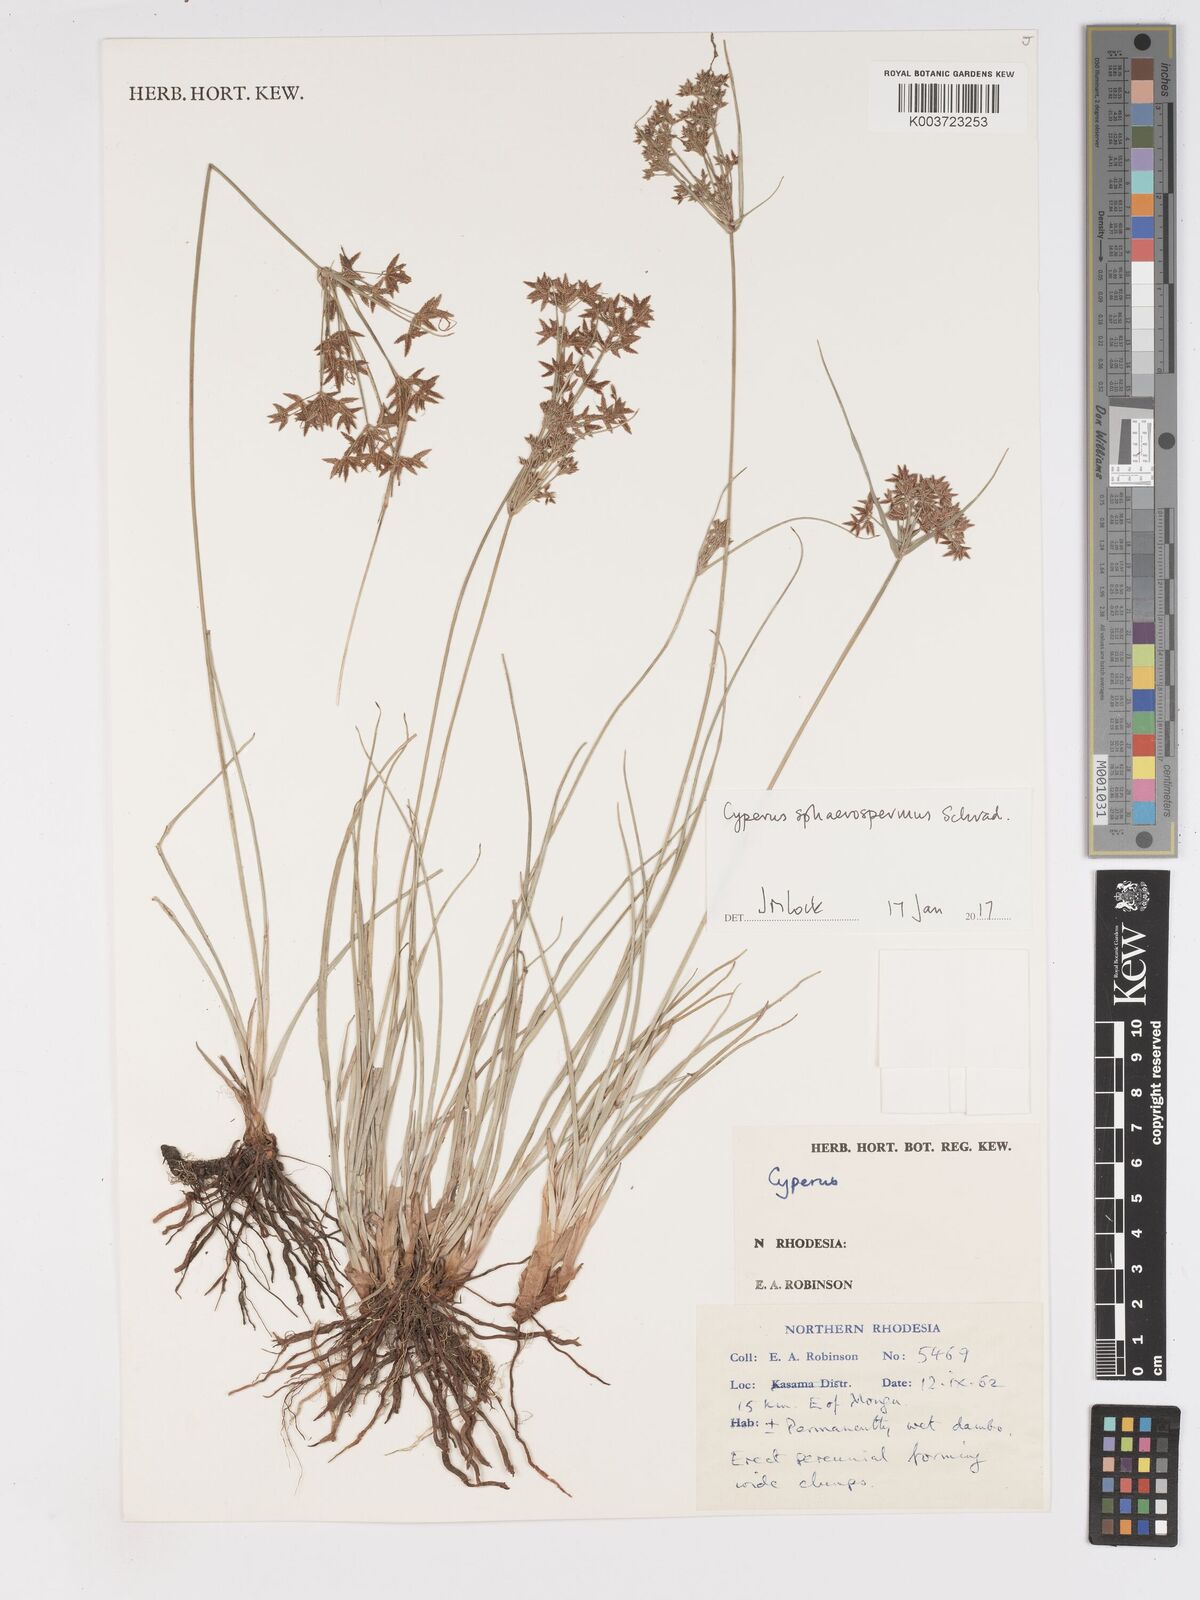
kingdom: Plantae
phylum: Tracheophyta
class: Liliopsida
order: Poales
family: Cyperaceae
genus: Cyperus
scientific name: Cyperus denudatus
